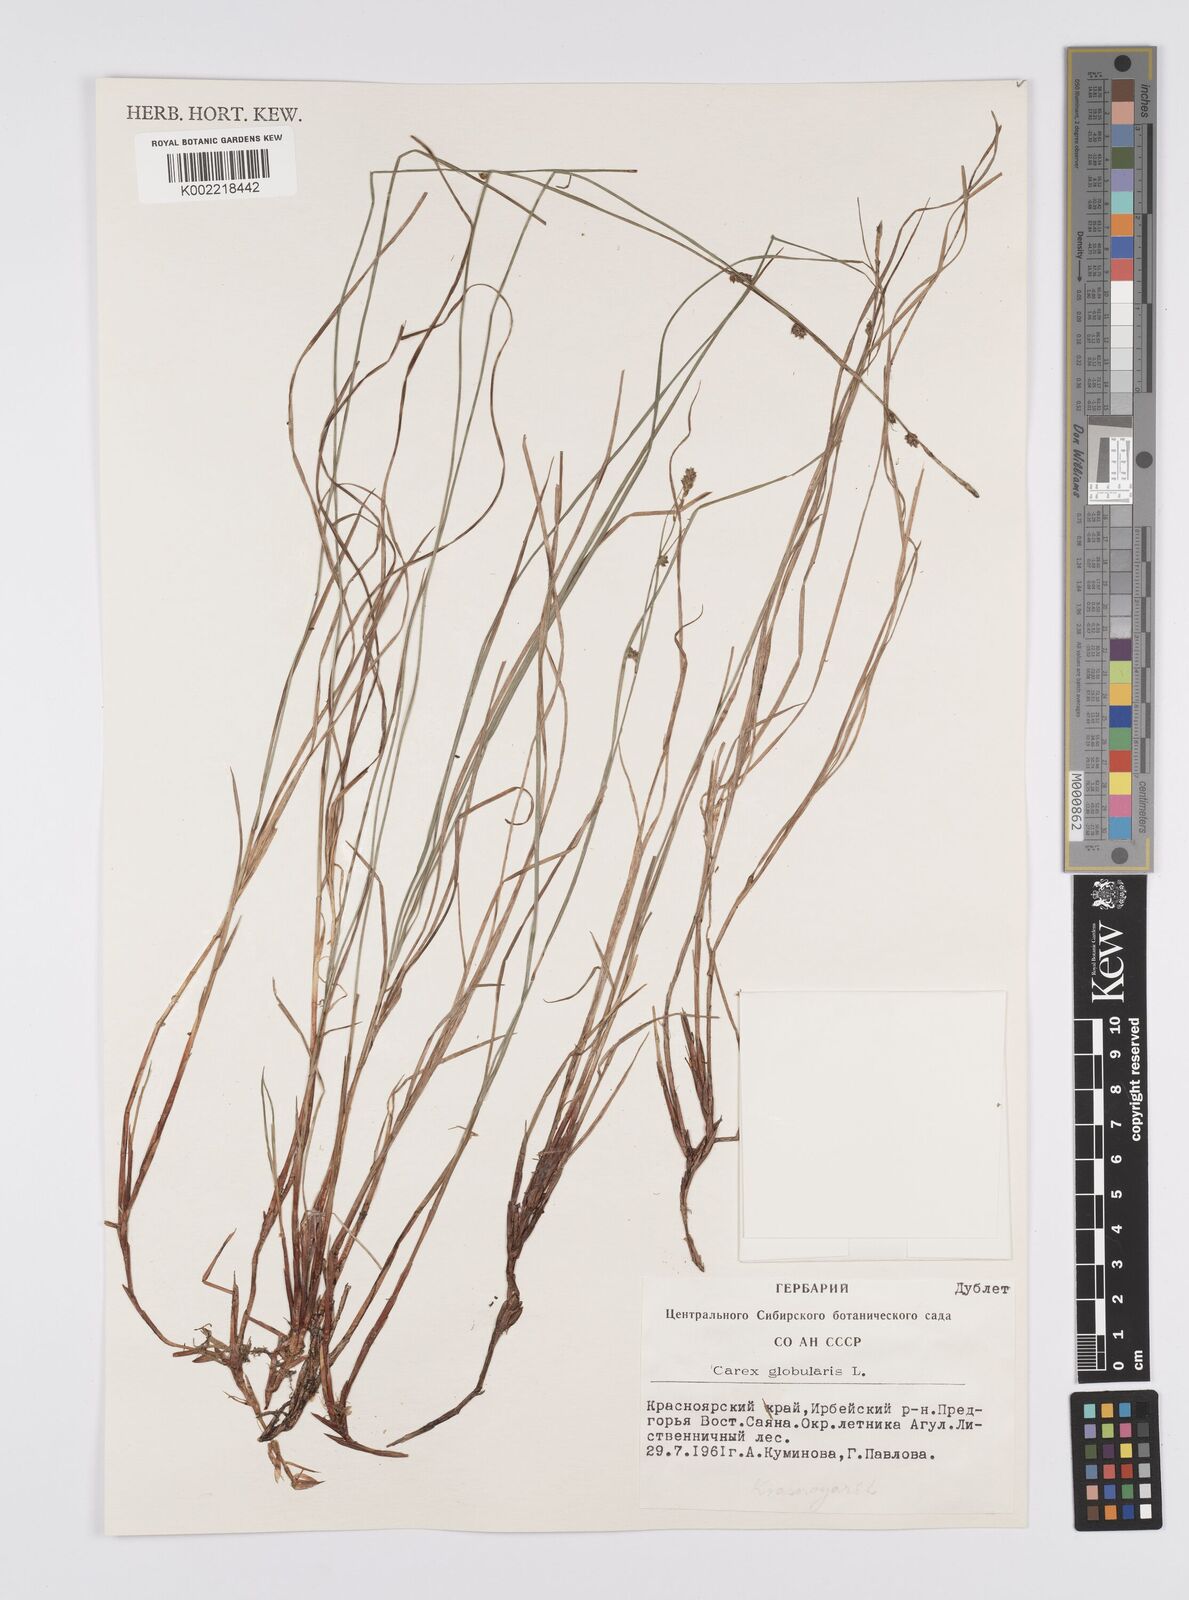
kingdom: Plantae
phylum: Tracheophyta
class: Liliopsida
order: Poales
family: Cyperaceae
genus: Carex
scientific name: Carex globularis
